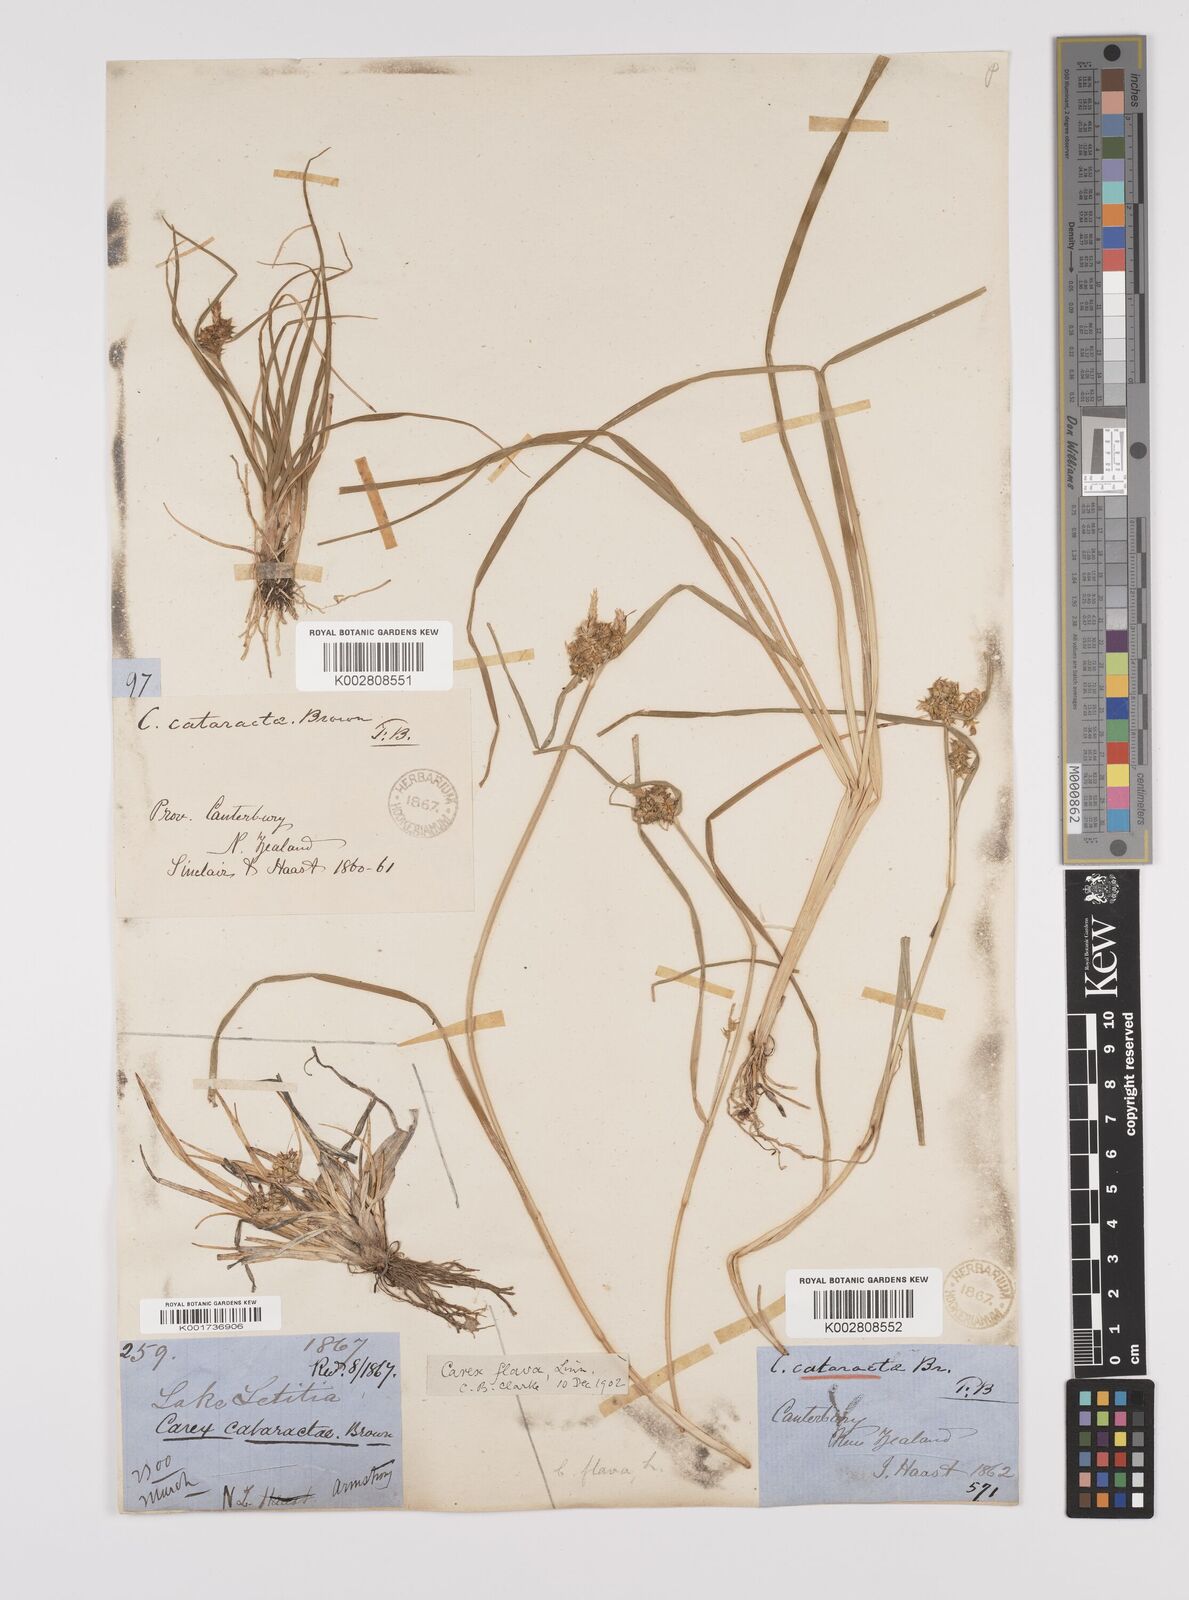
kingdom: Plantae
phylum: Tracheophyta
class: Liliopsida
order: Poales
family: Cyperaceae
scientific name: Cyperaceae
